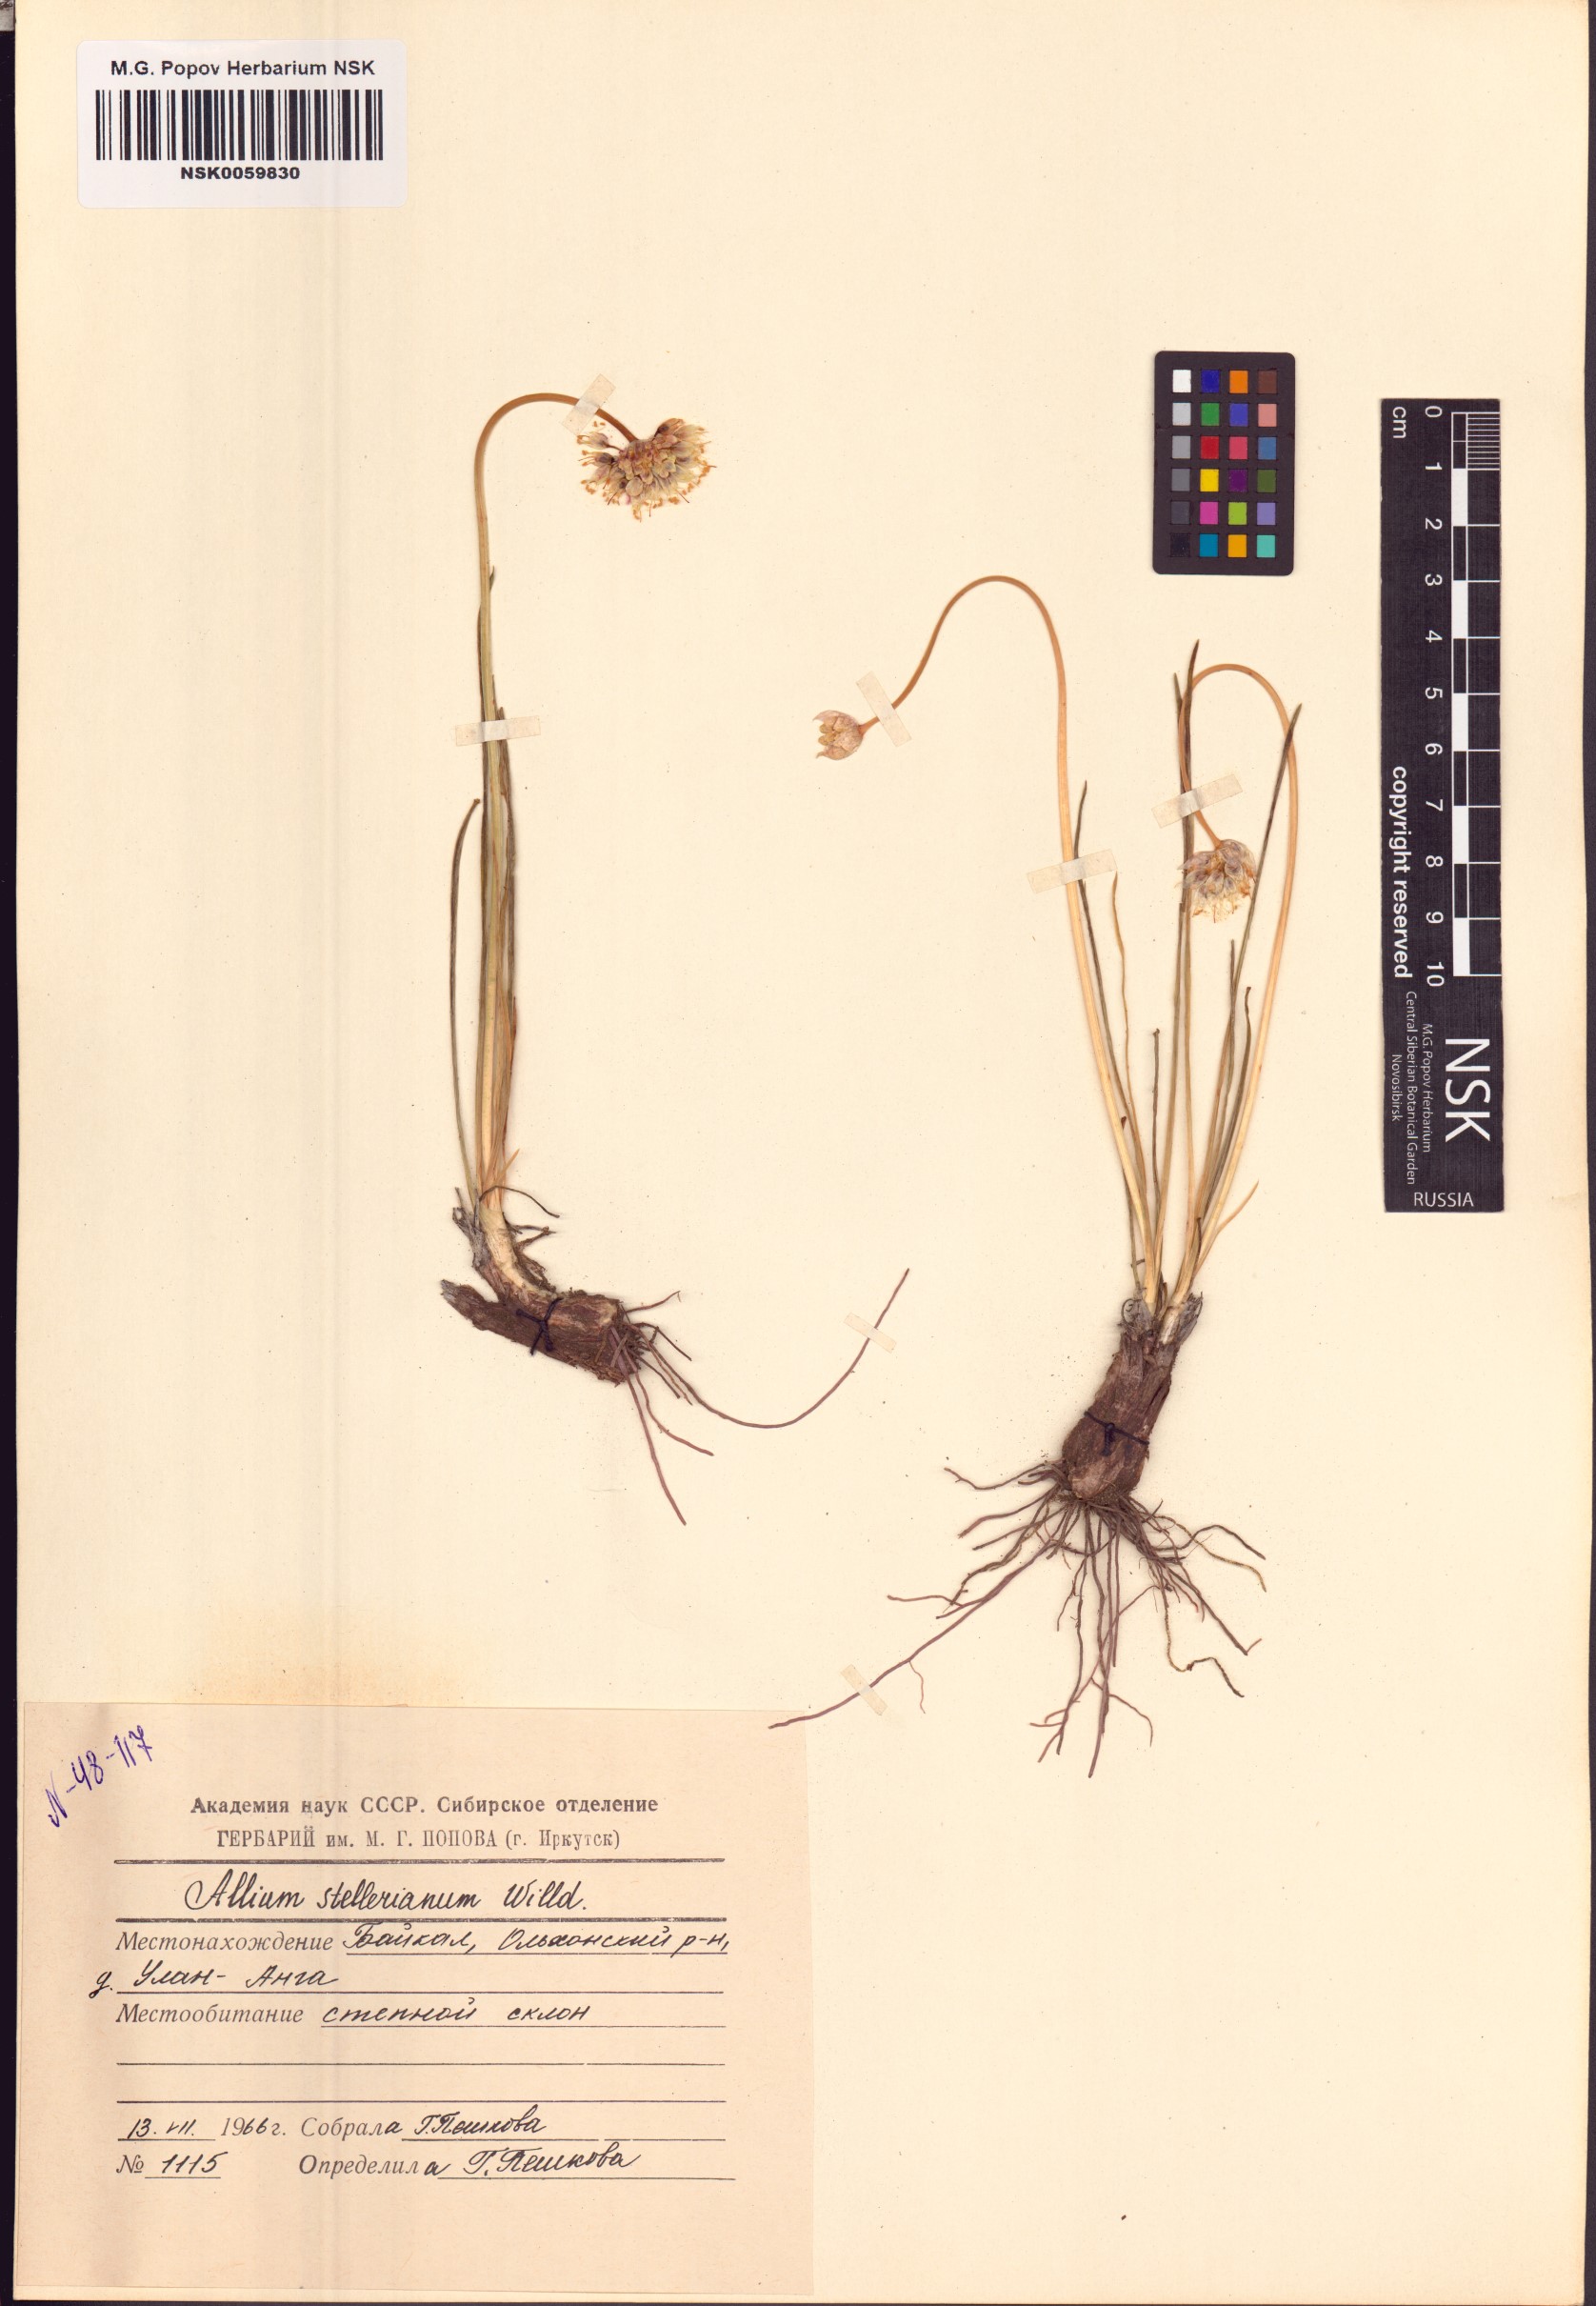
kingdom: Plantae
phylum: Tracheophyta
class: Liliopsida
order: Asparagales
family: Amaryllidaceae
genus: Allium
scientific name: Allium stellerianum
